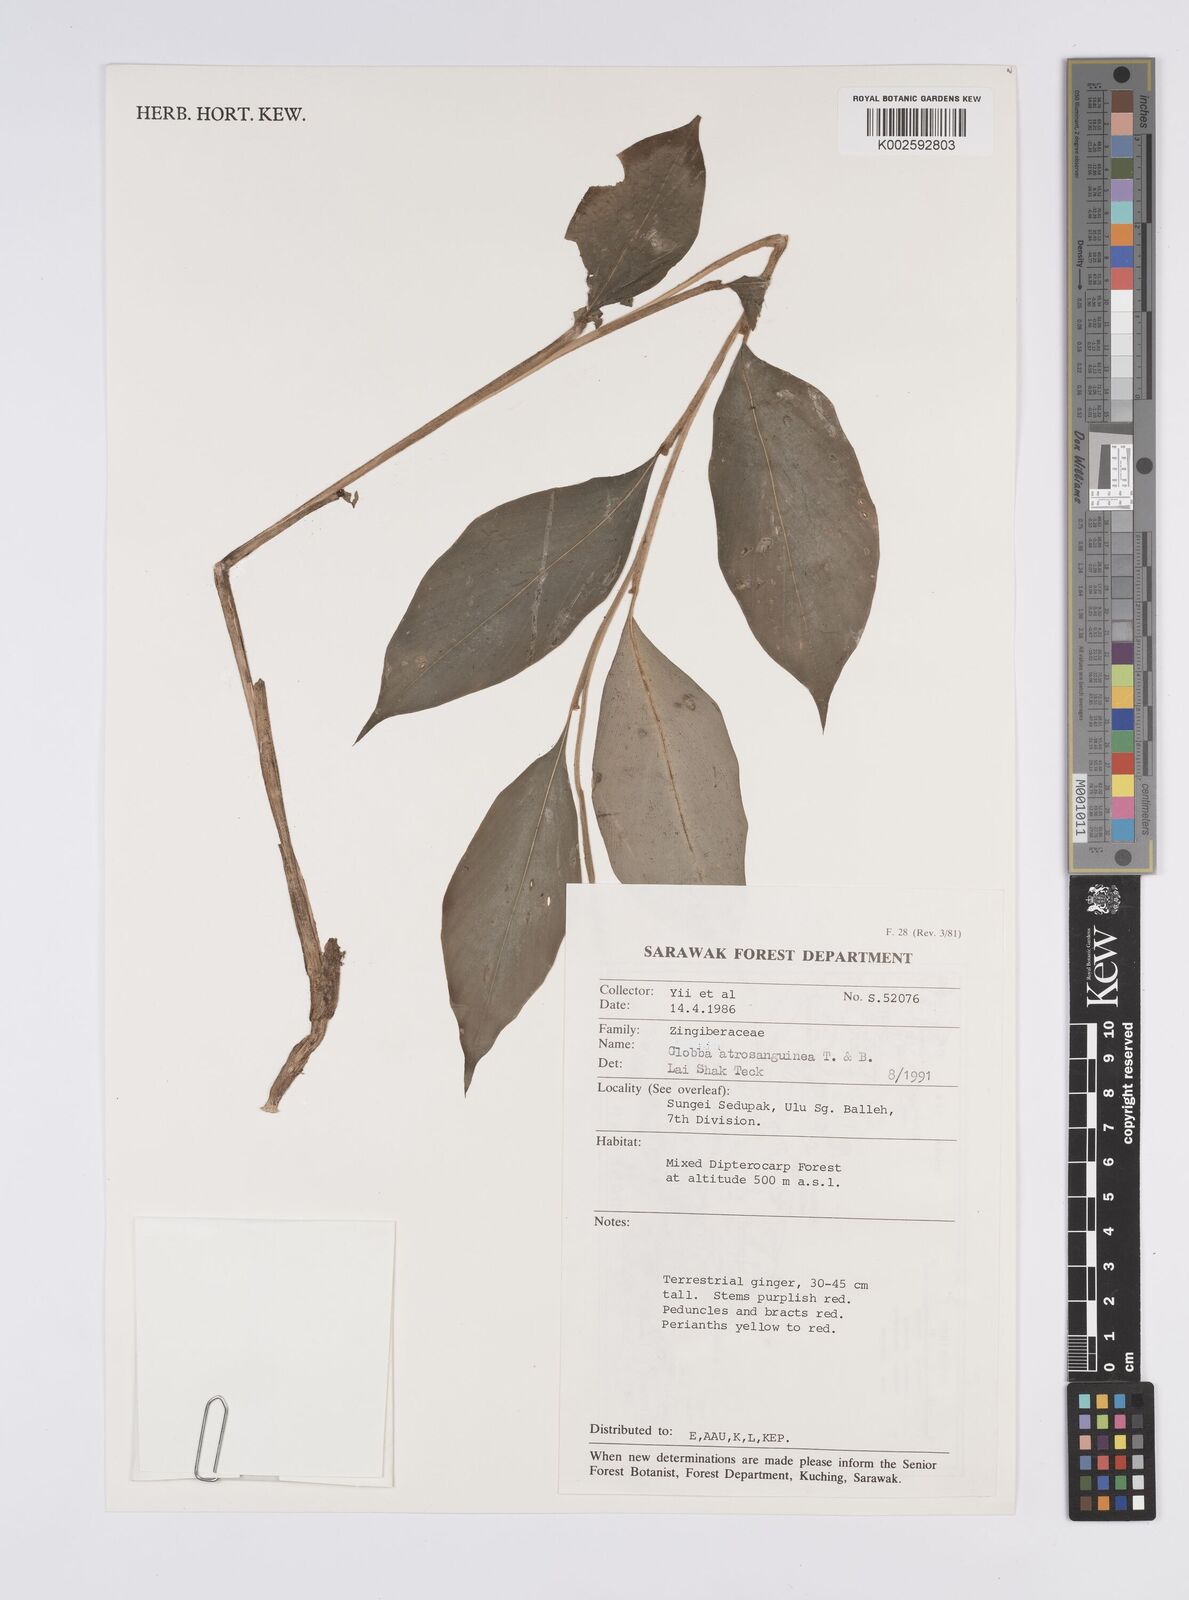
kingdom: Plantae
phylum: Tracheophyta
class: Liliopsida
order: Zingiberales
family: Zingiberaceae
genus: Globba
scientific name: Globba atrosanguinea
